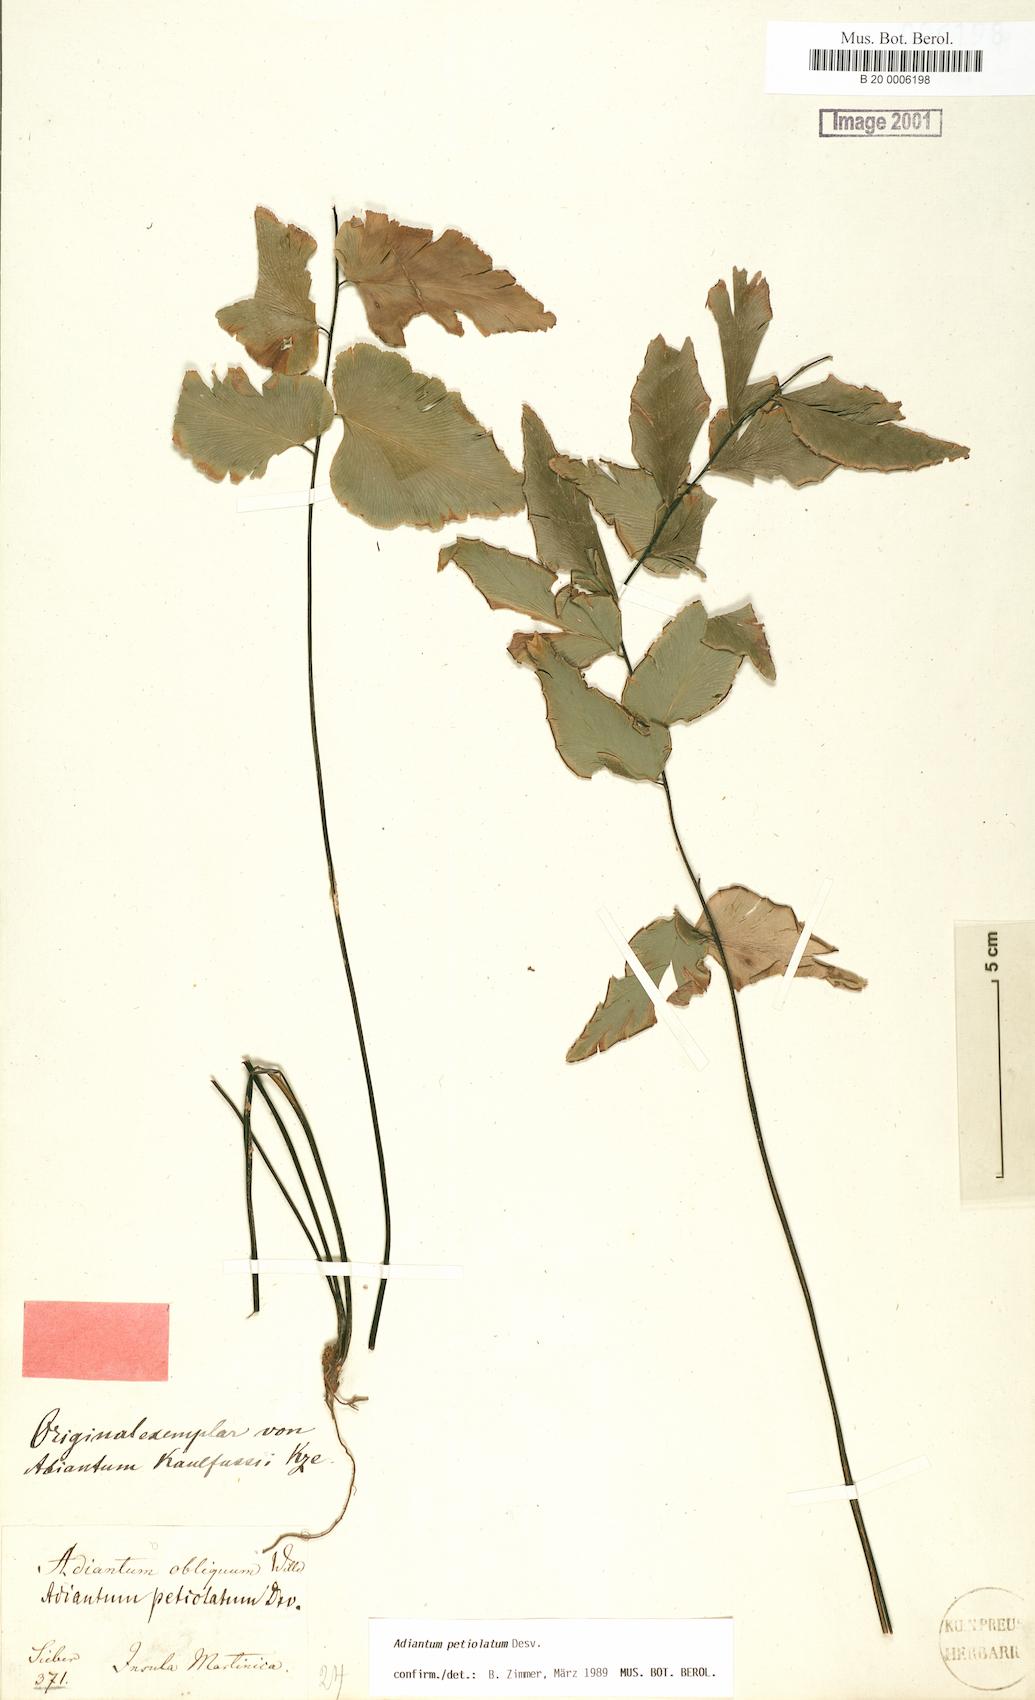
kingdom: Plantae
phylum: Tracheophyta
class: Polypodiopsida
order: Polypodiales
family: Pteridaceae
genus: Adiantum
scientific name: Adiantum petiolatum
